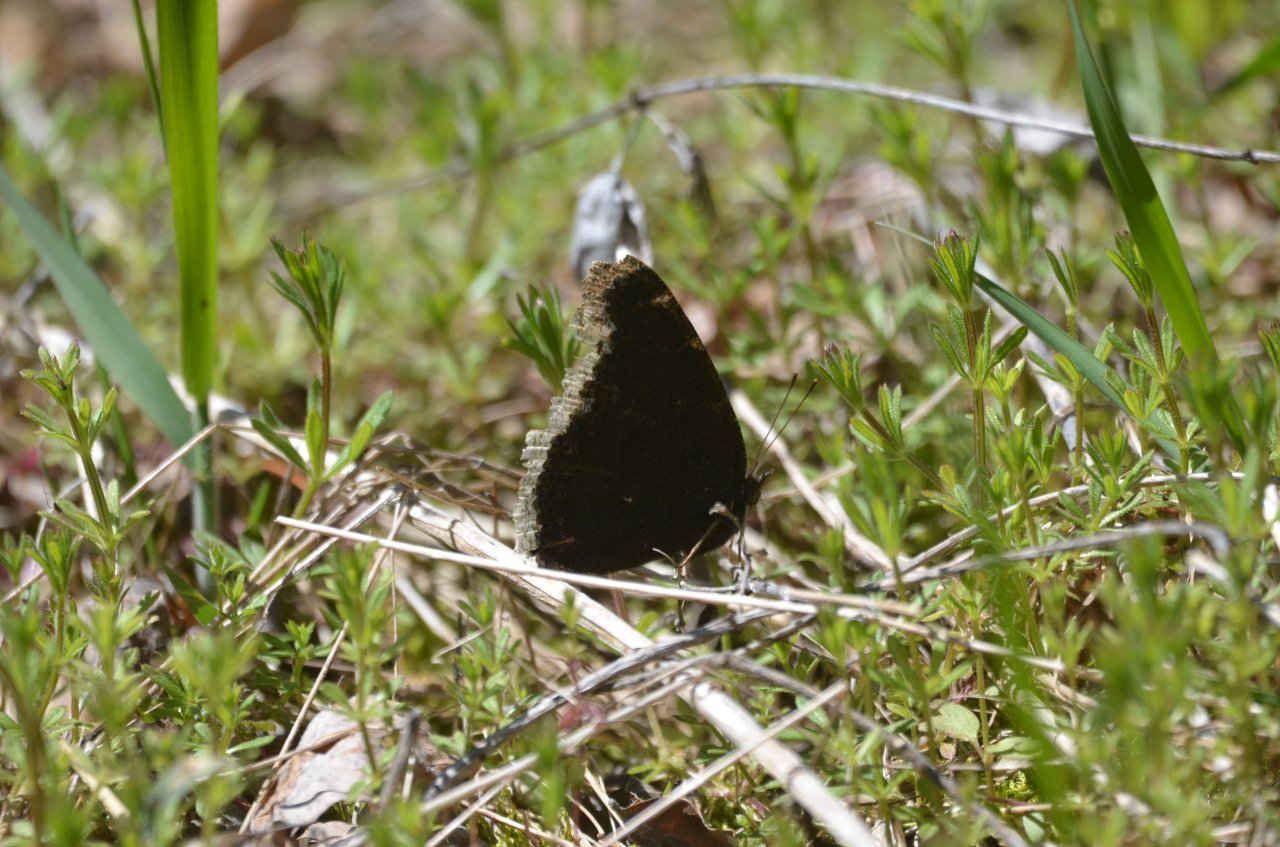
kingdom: Animalia
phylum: Arthropoda
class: Insecta
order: Lepidoptera
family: Nymphalidae
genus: Nymphalis
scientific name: Nymphalis antiopa
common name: Mourning Cloak
